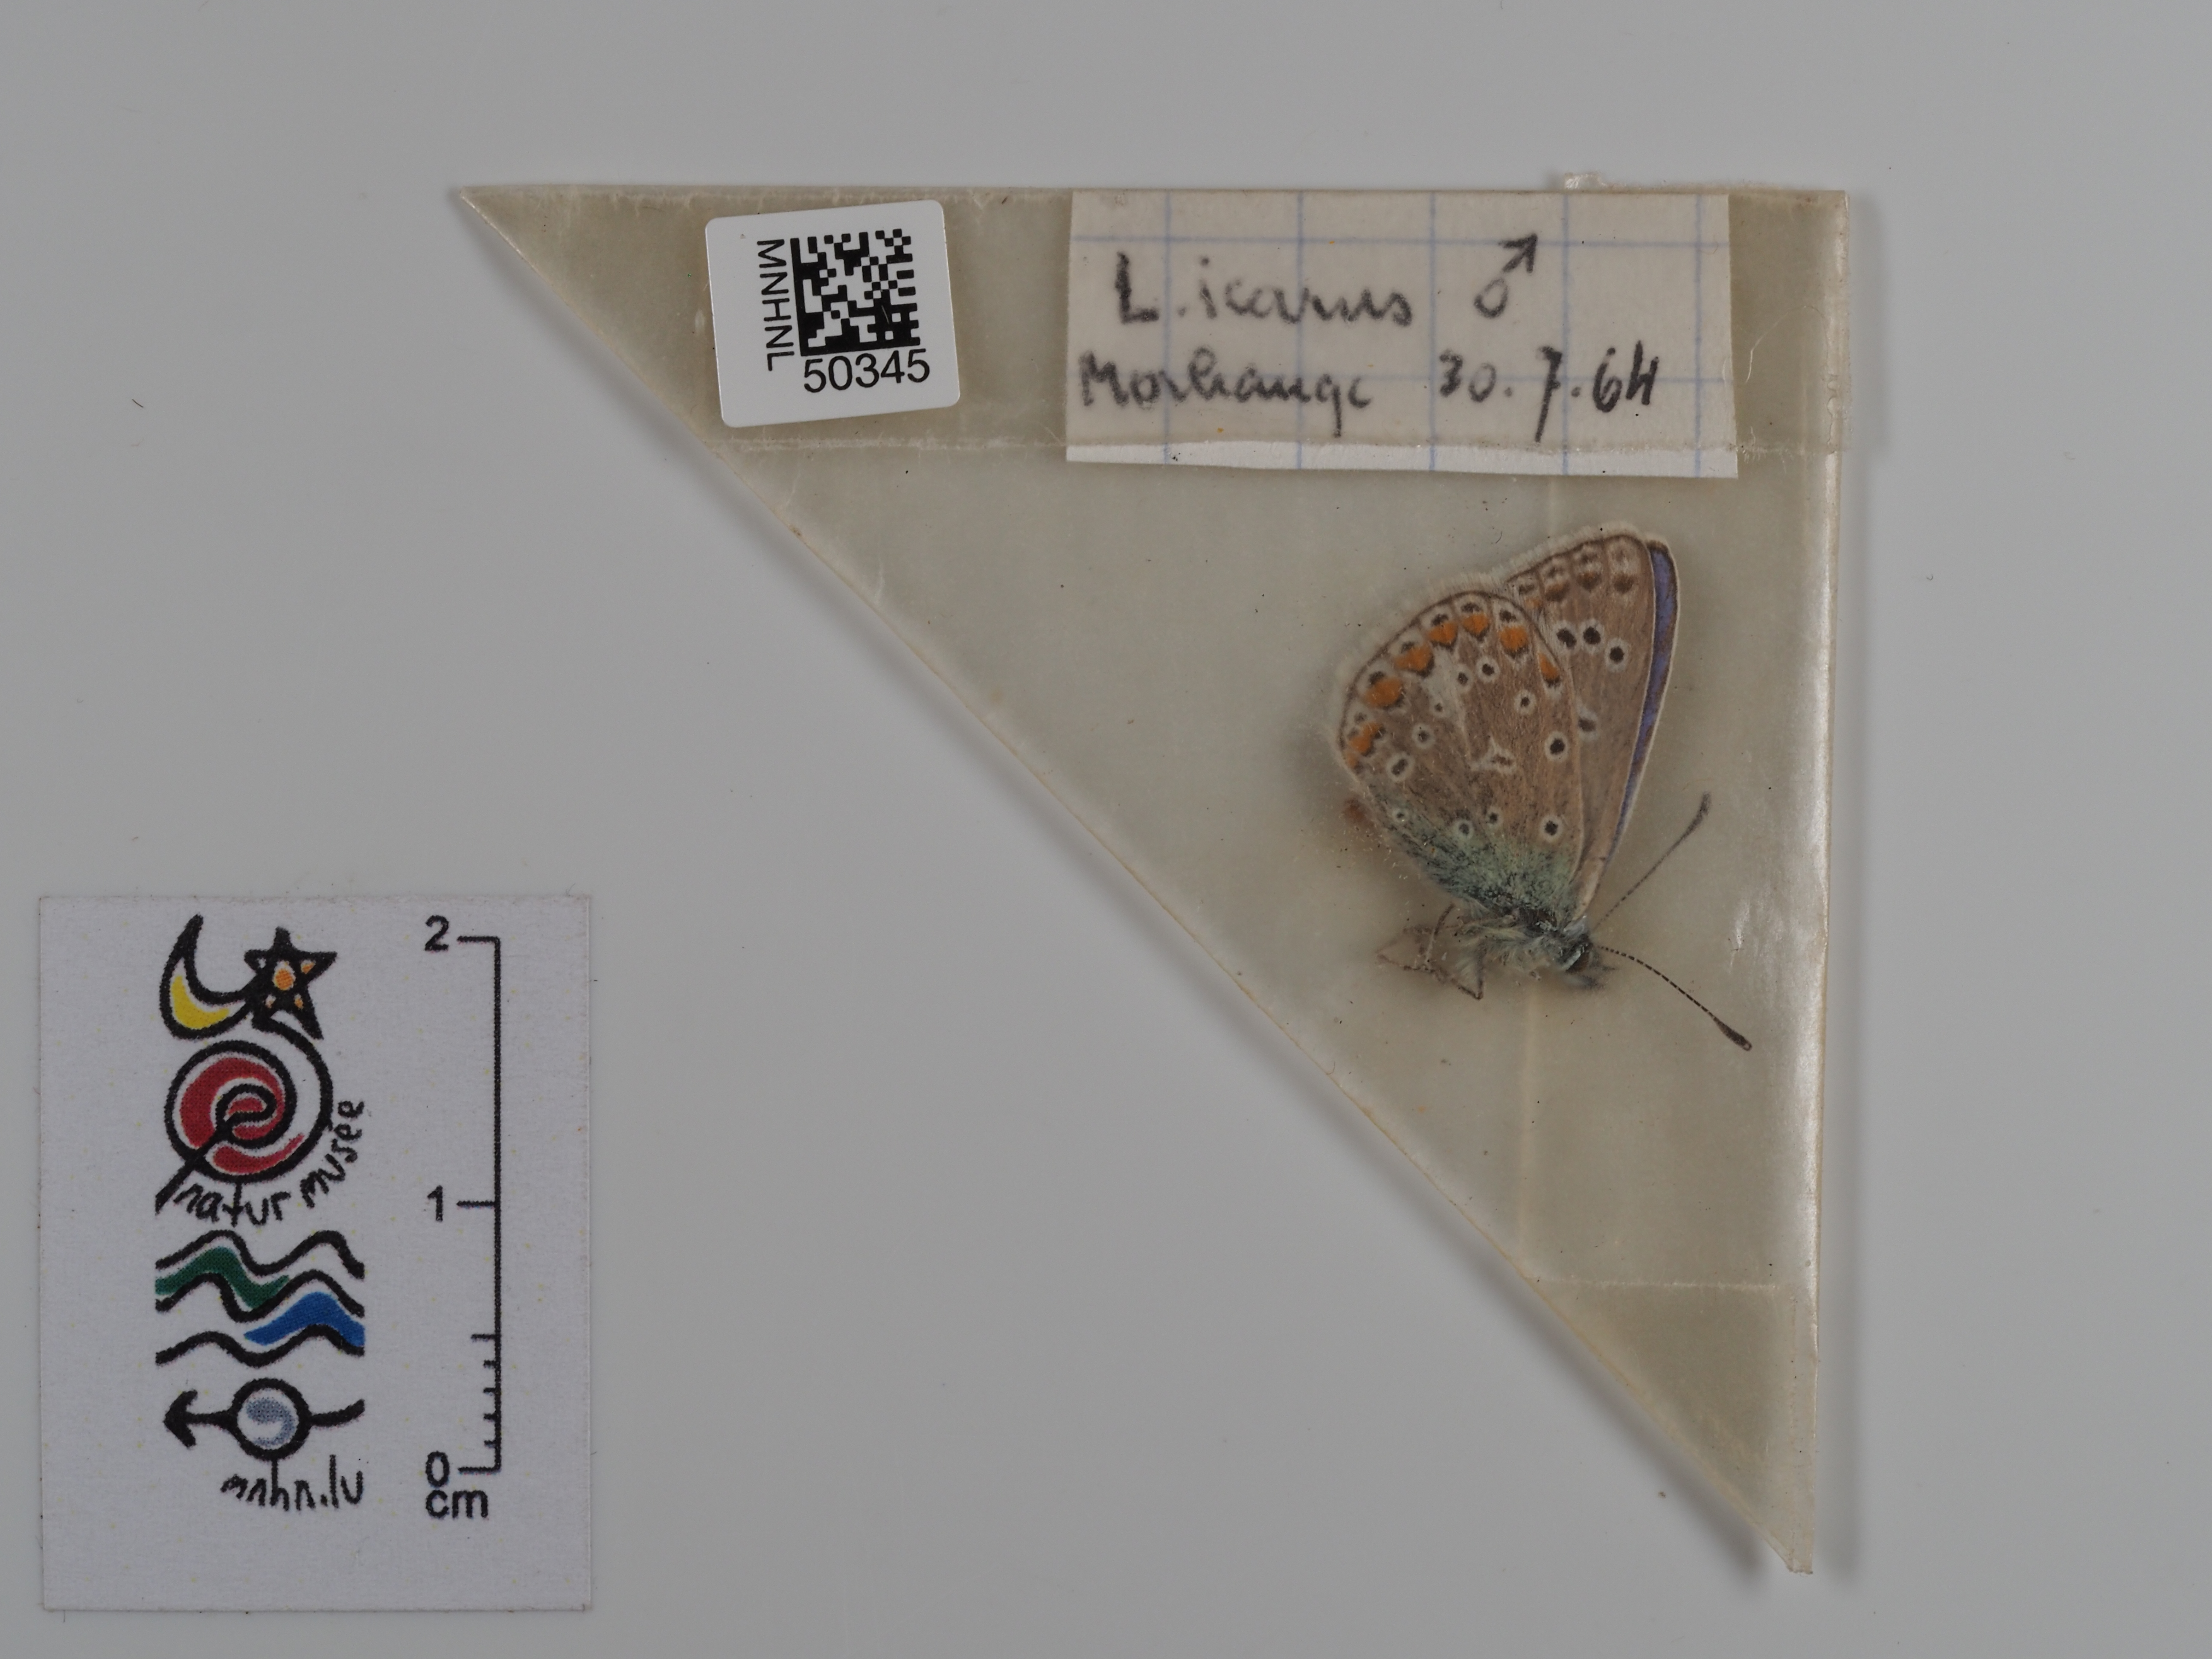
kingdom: Animalia
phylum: Arthropoda
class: Insecta
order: Lepidoptera
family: Lycaenidae
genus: Polyommatus
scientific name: Polyommatus icarus
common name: Common blue
